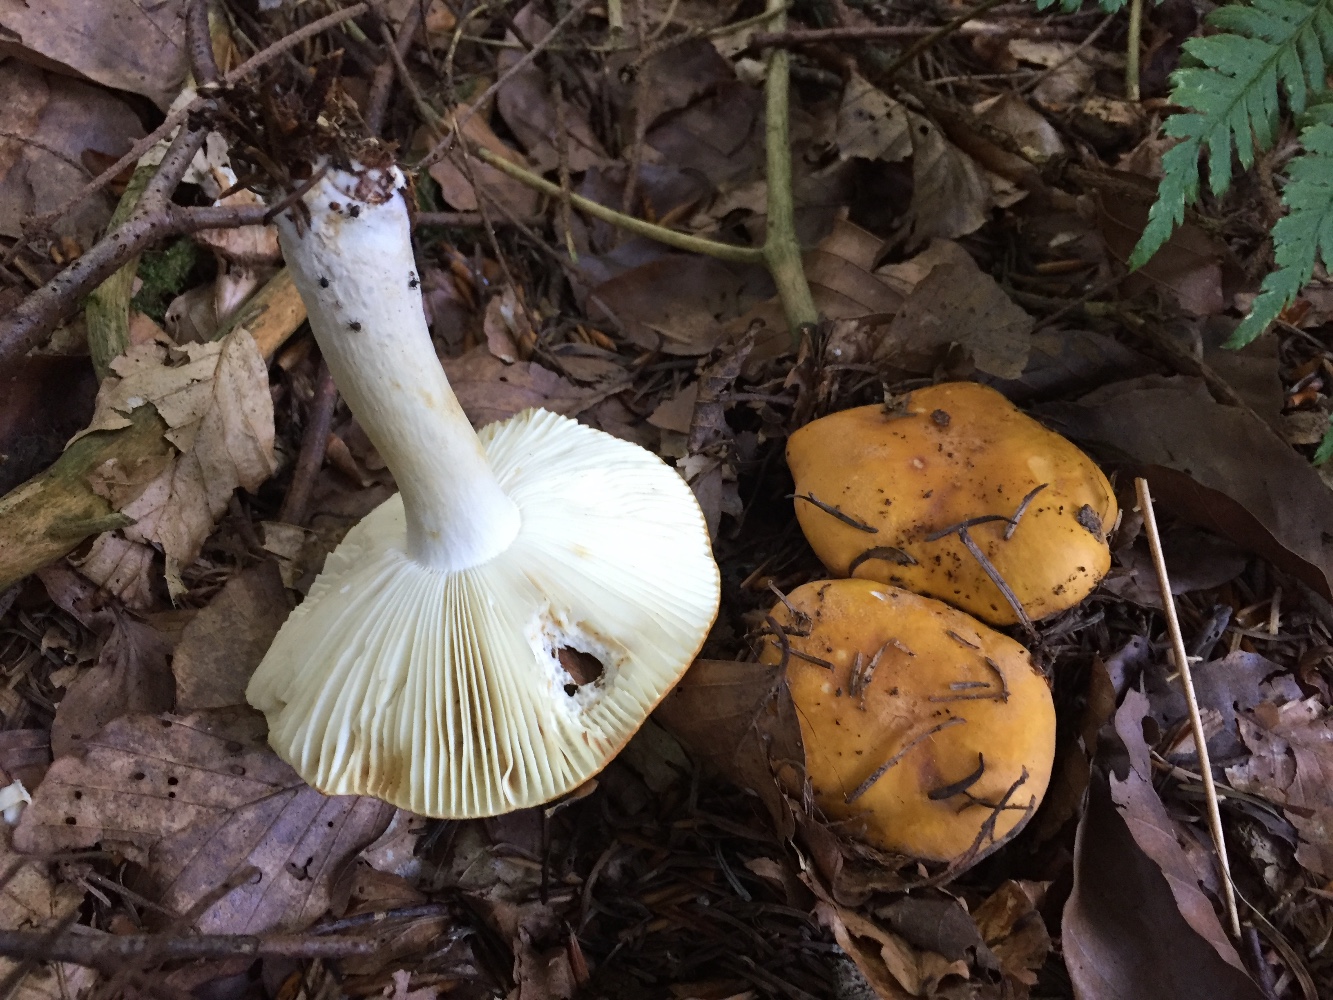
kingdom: Fungi
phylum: Basidiomycota
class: Agaricomycetes
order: Russulales
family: Russulaceae
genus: Russula
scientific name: Russula ochroleuca
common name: okkergul skørhat
